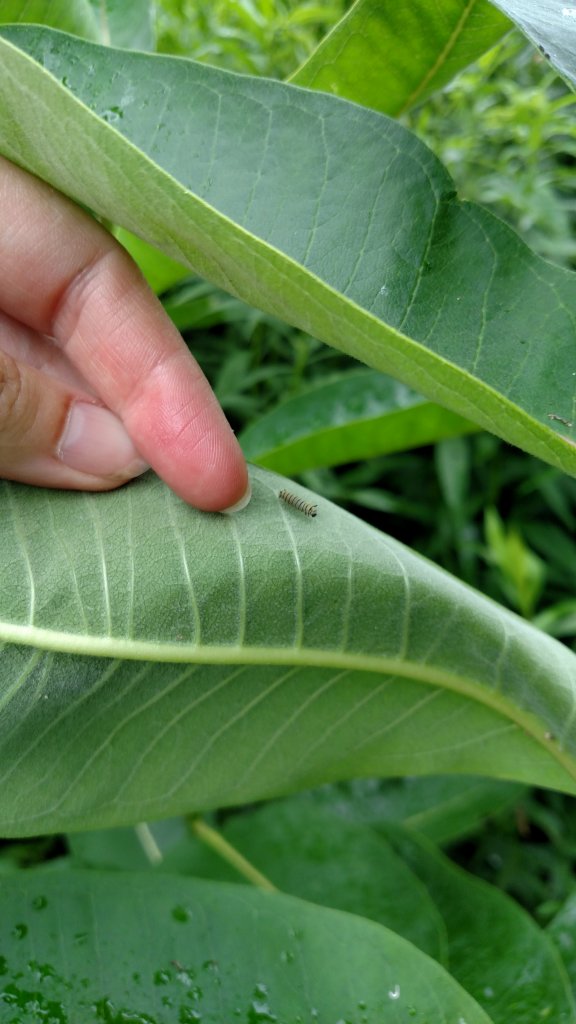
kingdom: Animalia
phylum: Arthropoda
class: Insecta
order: Lepidoptera
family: Nymphalidae
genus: Danaus
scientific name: Danaus plexippus
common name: Monarch
